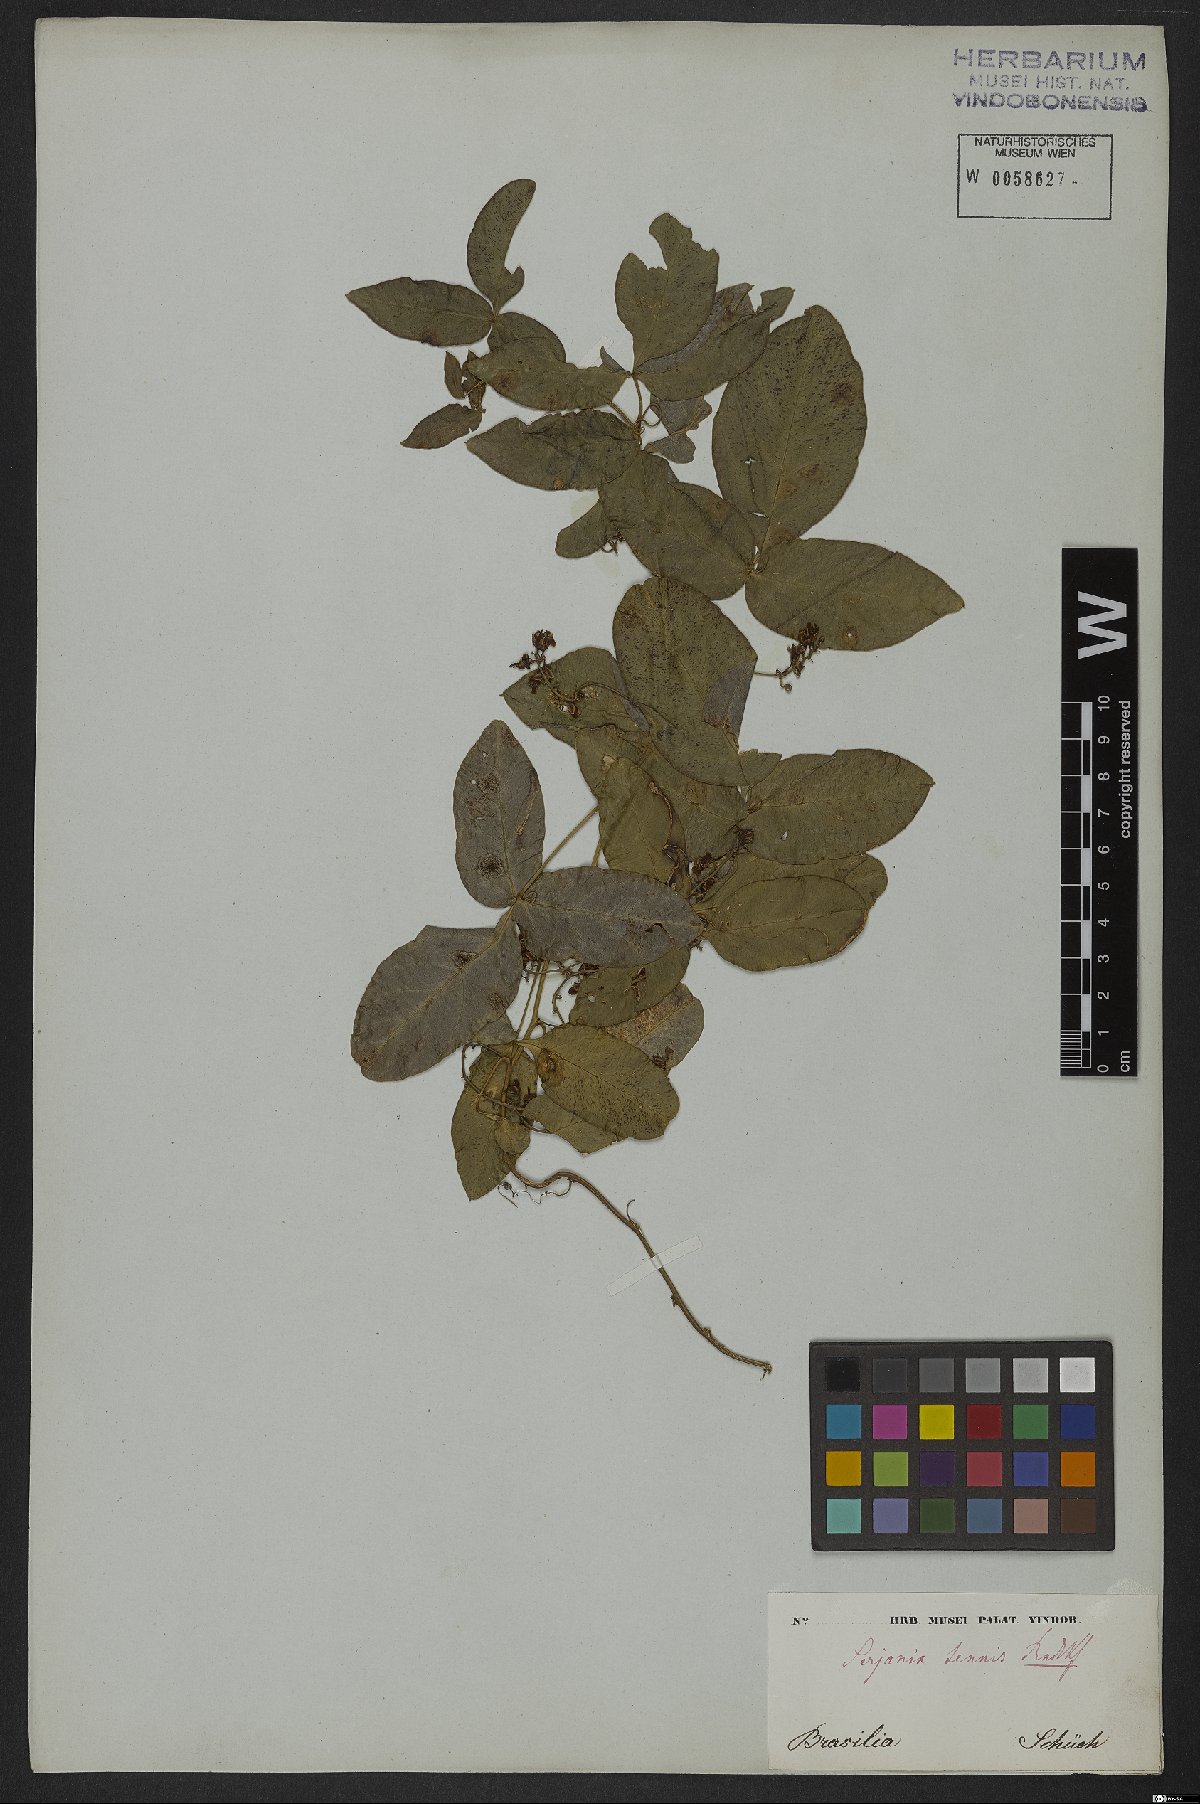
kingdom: Plantae
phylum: Tracheophyta
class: Magnoliopsida
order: Sapindales
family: Sapindaceae
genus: Serjania
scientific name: Serjania tenuis
